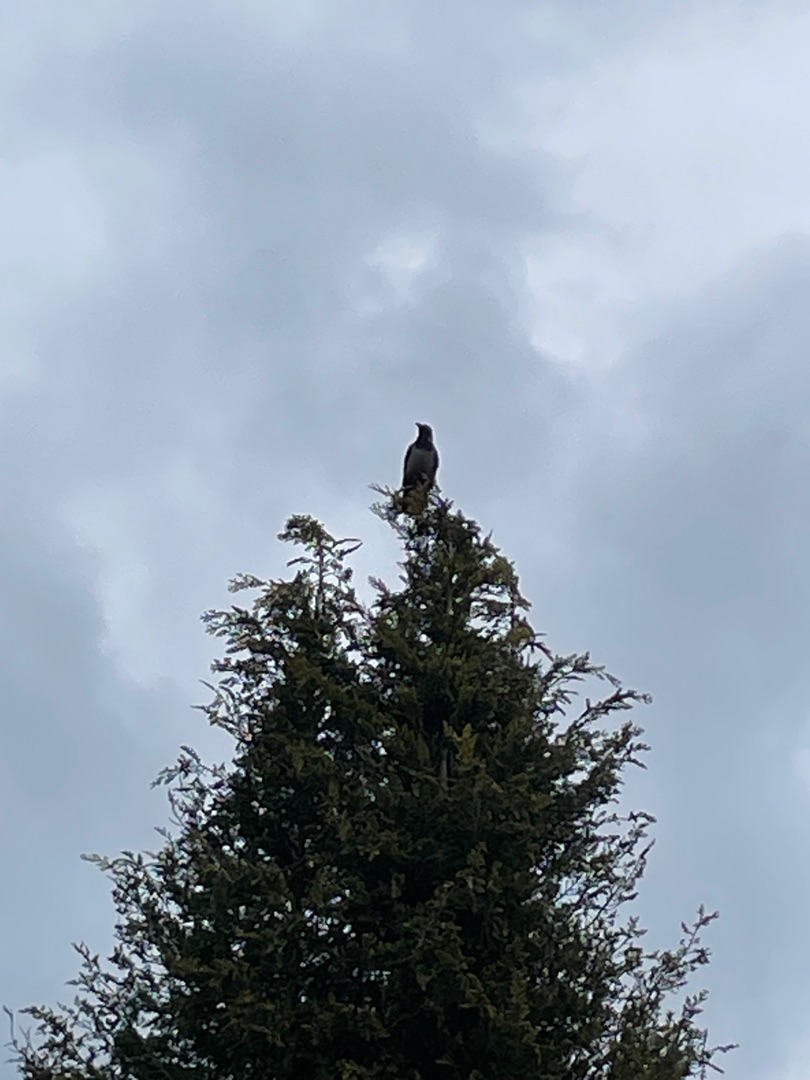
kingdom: Animalia
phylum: Chordata
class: Aves
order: Passeriformes
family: Corvidae
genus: Corvus
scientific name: Corvus cornix
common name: Gråkrage
